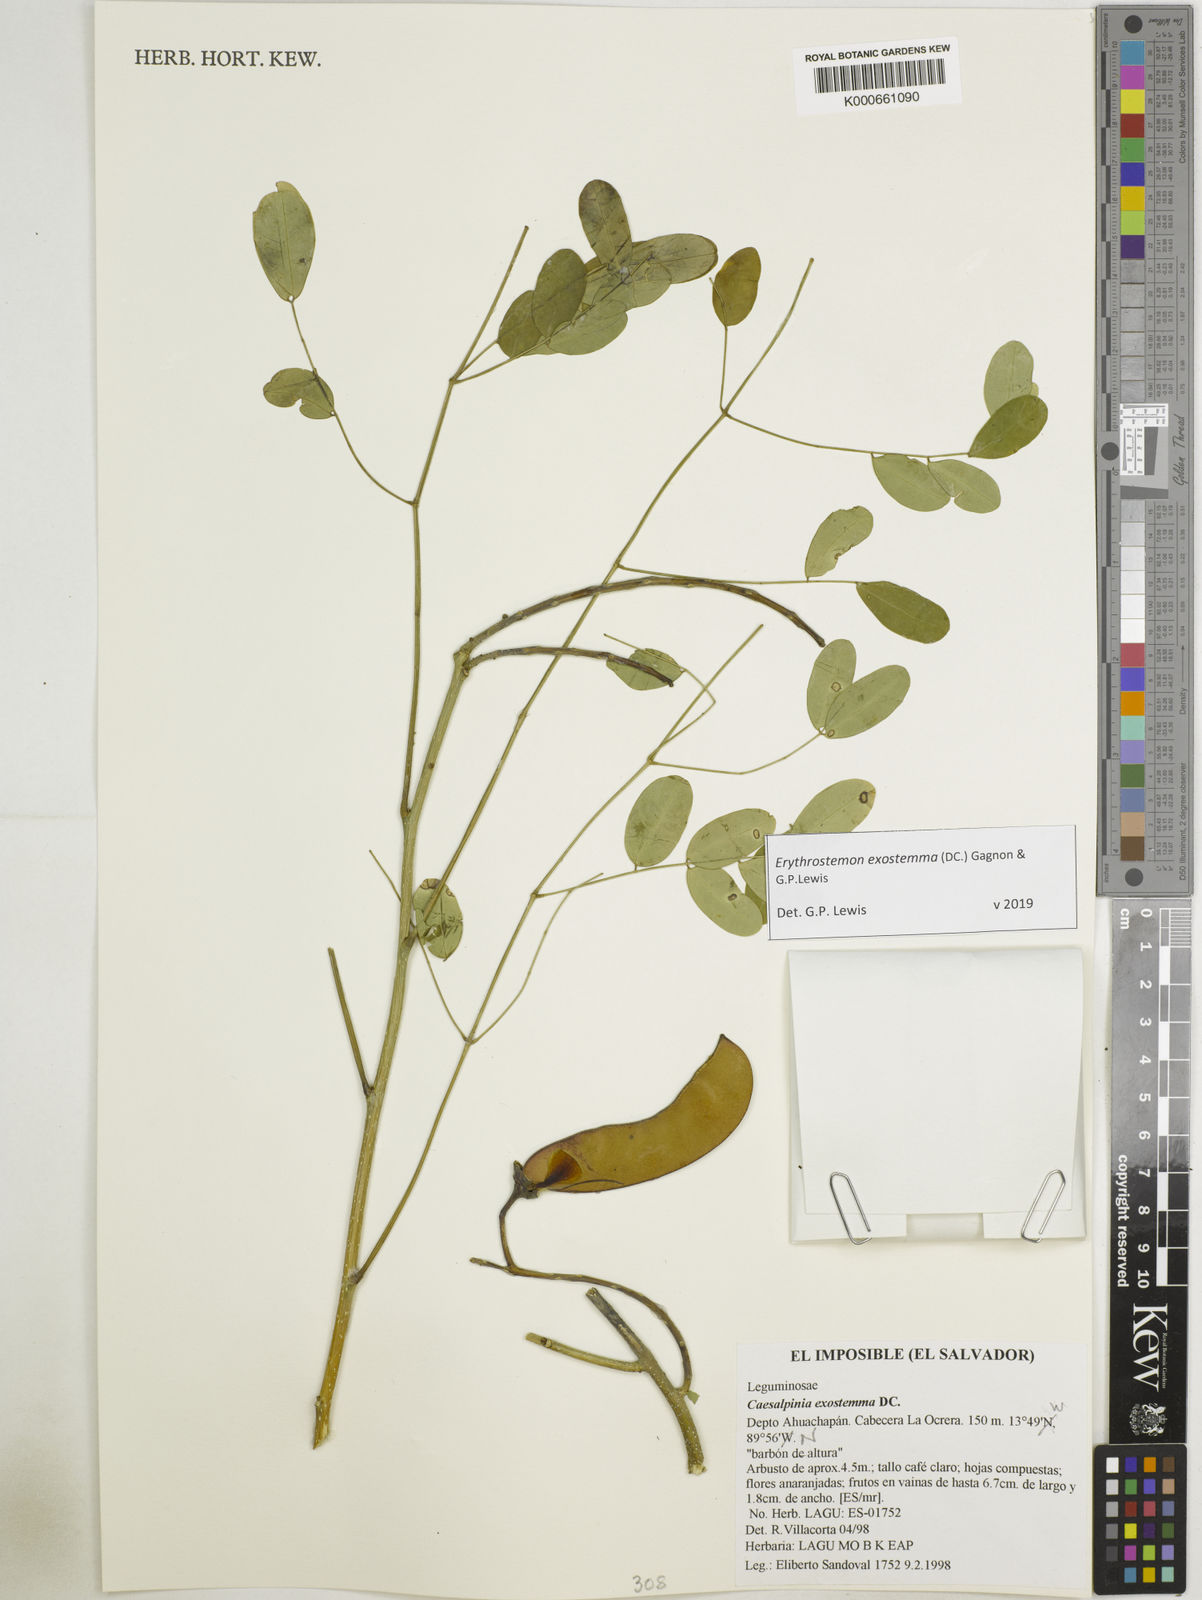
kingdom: Plantae
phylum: Tracheophyta
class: Magnoliopsida
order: Fabales
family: Fabaceae
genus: Erythrostemon
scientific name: Erythrostemon exostemma
